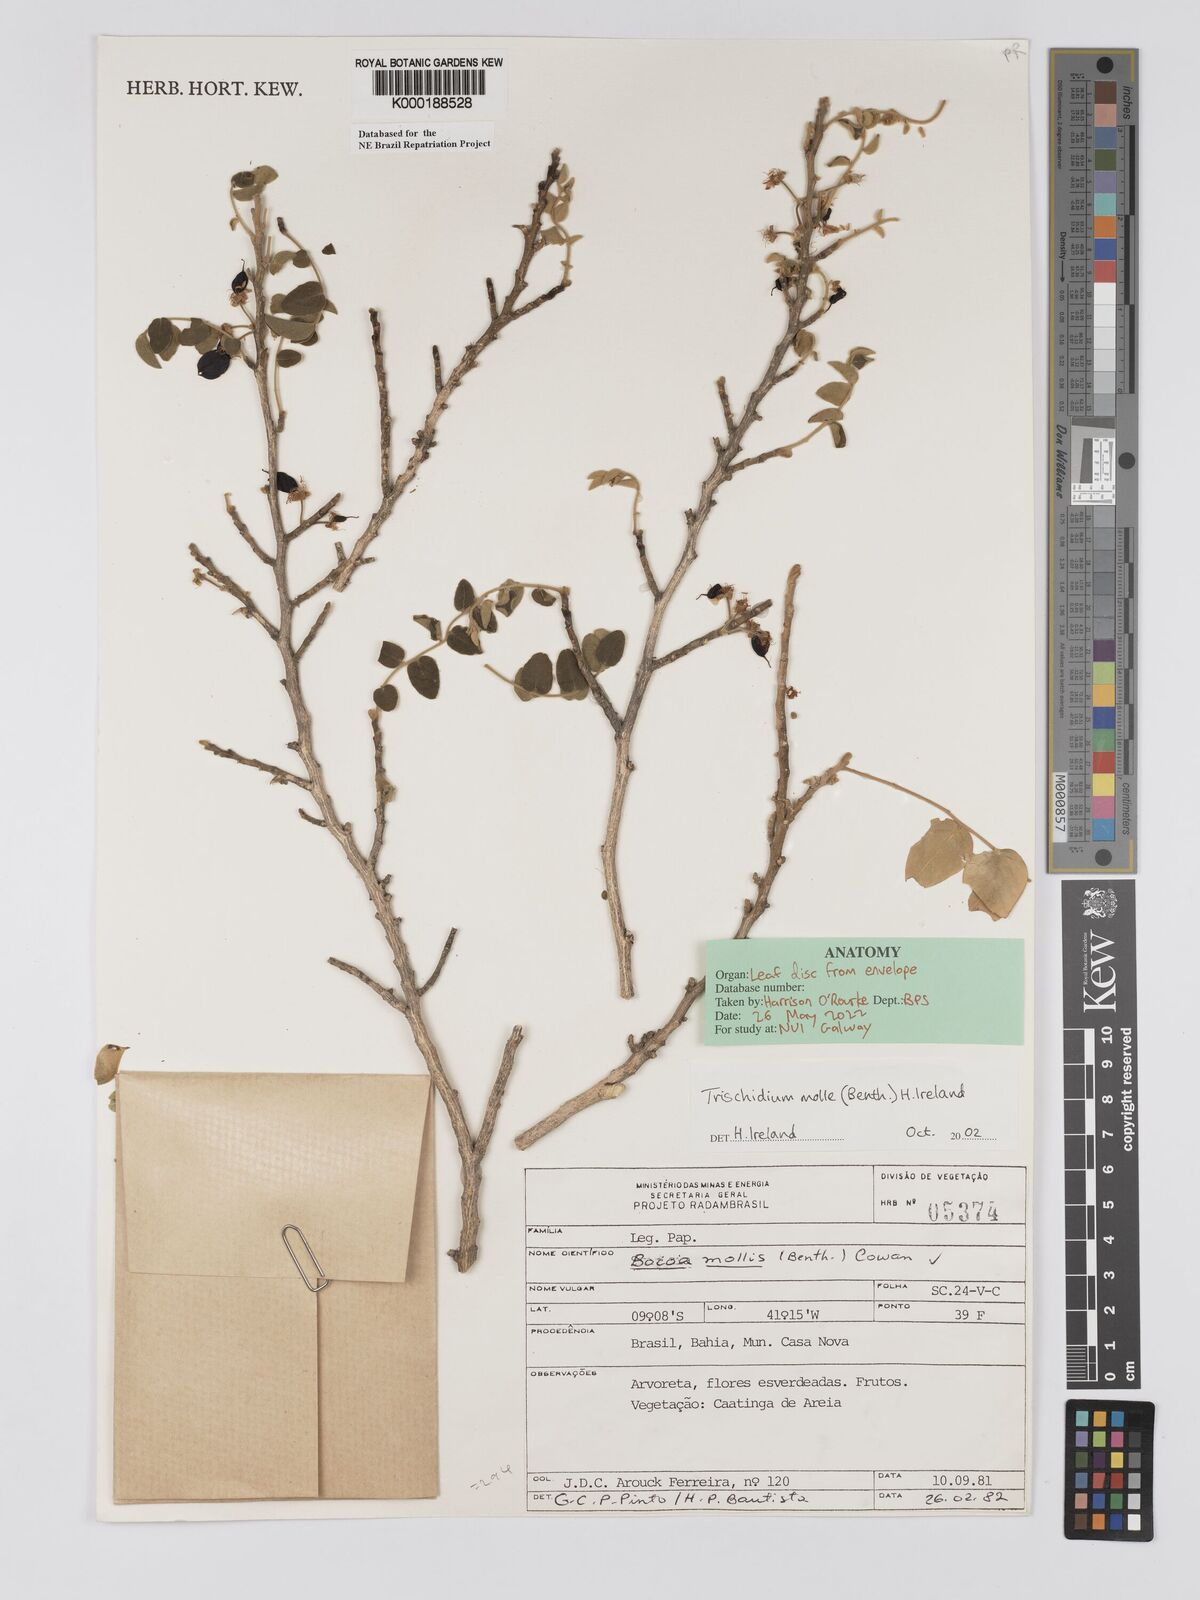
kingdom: Plantae
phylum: Tracheophyta
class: Magnoliopsida
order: Fabales
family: Fabaceae
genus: Trischidium
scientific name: Trischidium
